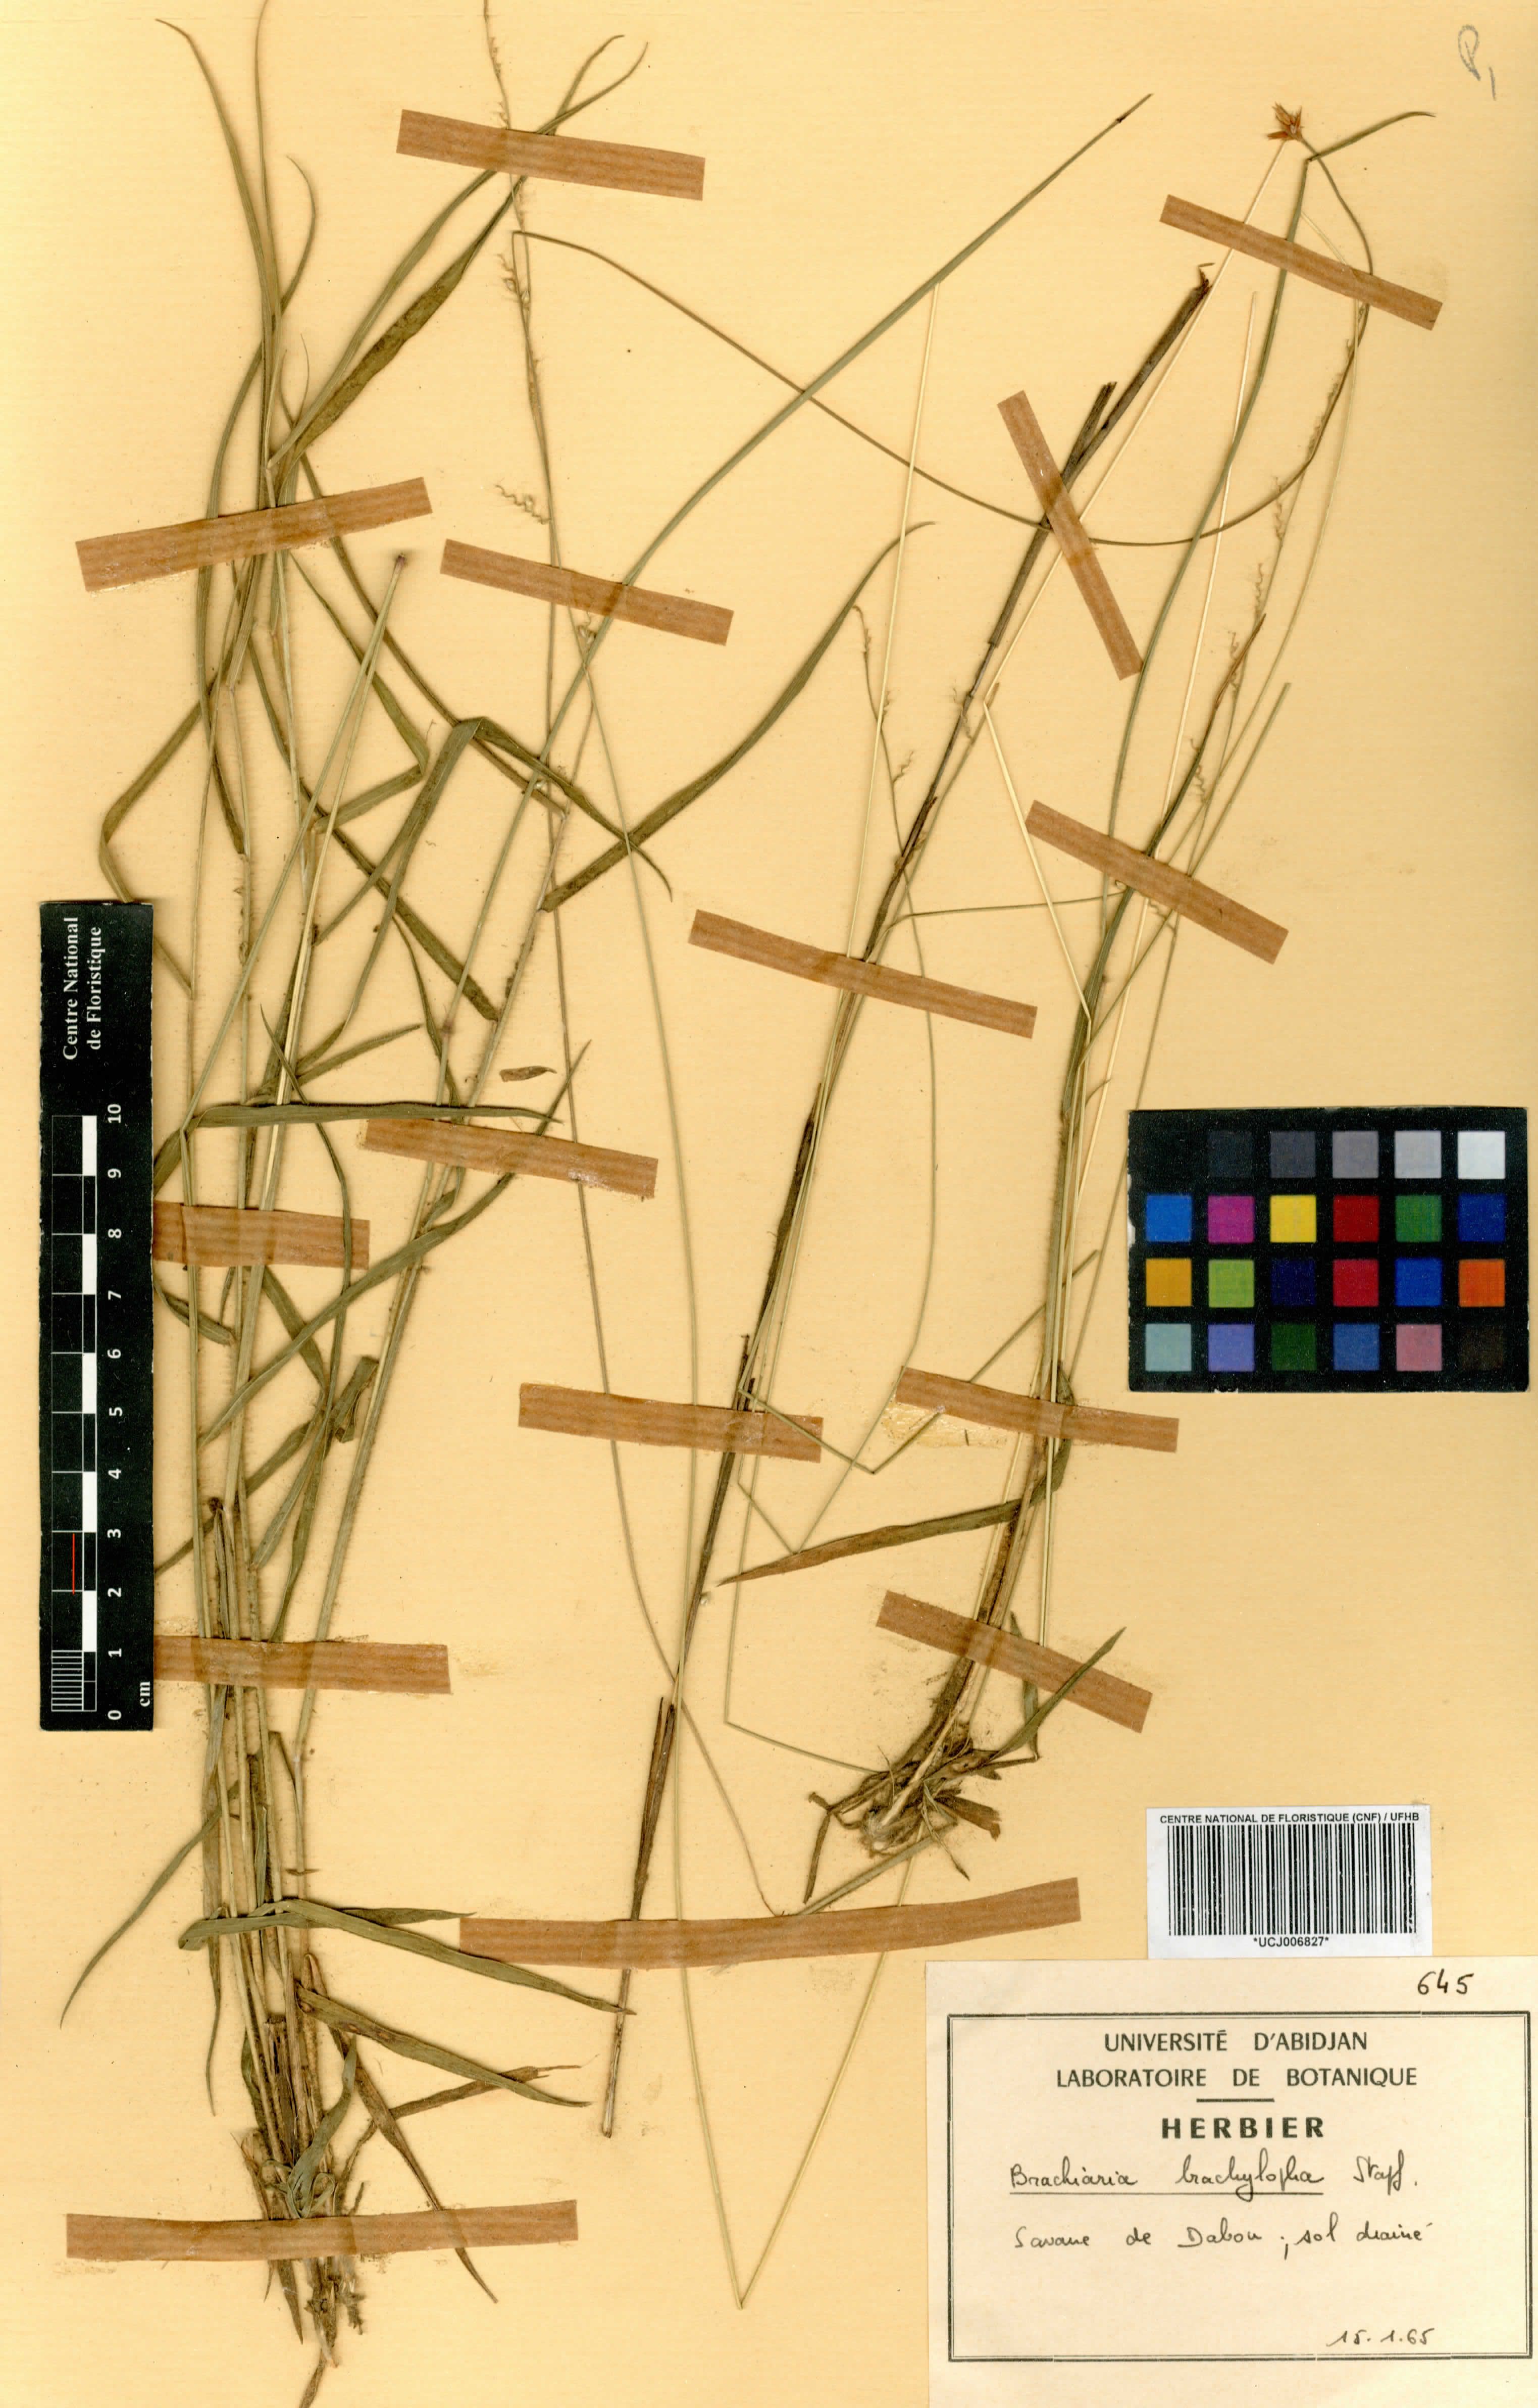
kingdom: Plantae
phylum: Tracheophyta
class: Liliopsida
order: Poales
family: Poaceae
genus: Urochloa
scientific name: Urochloa serrata
